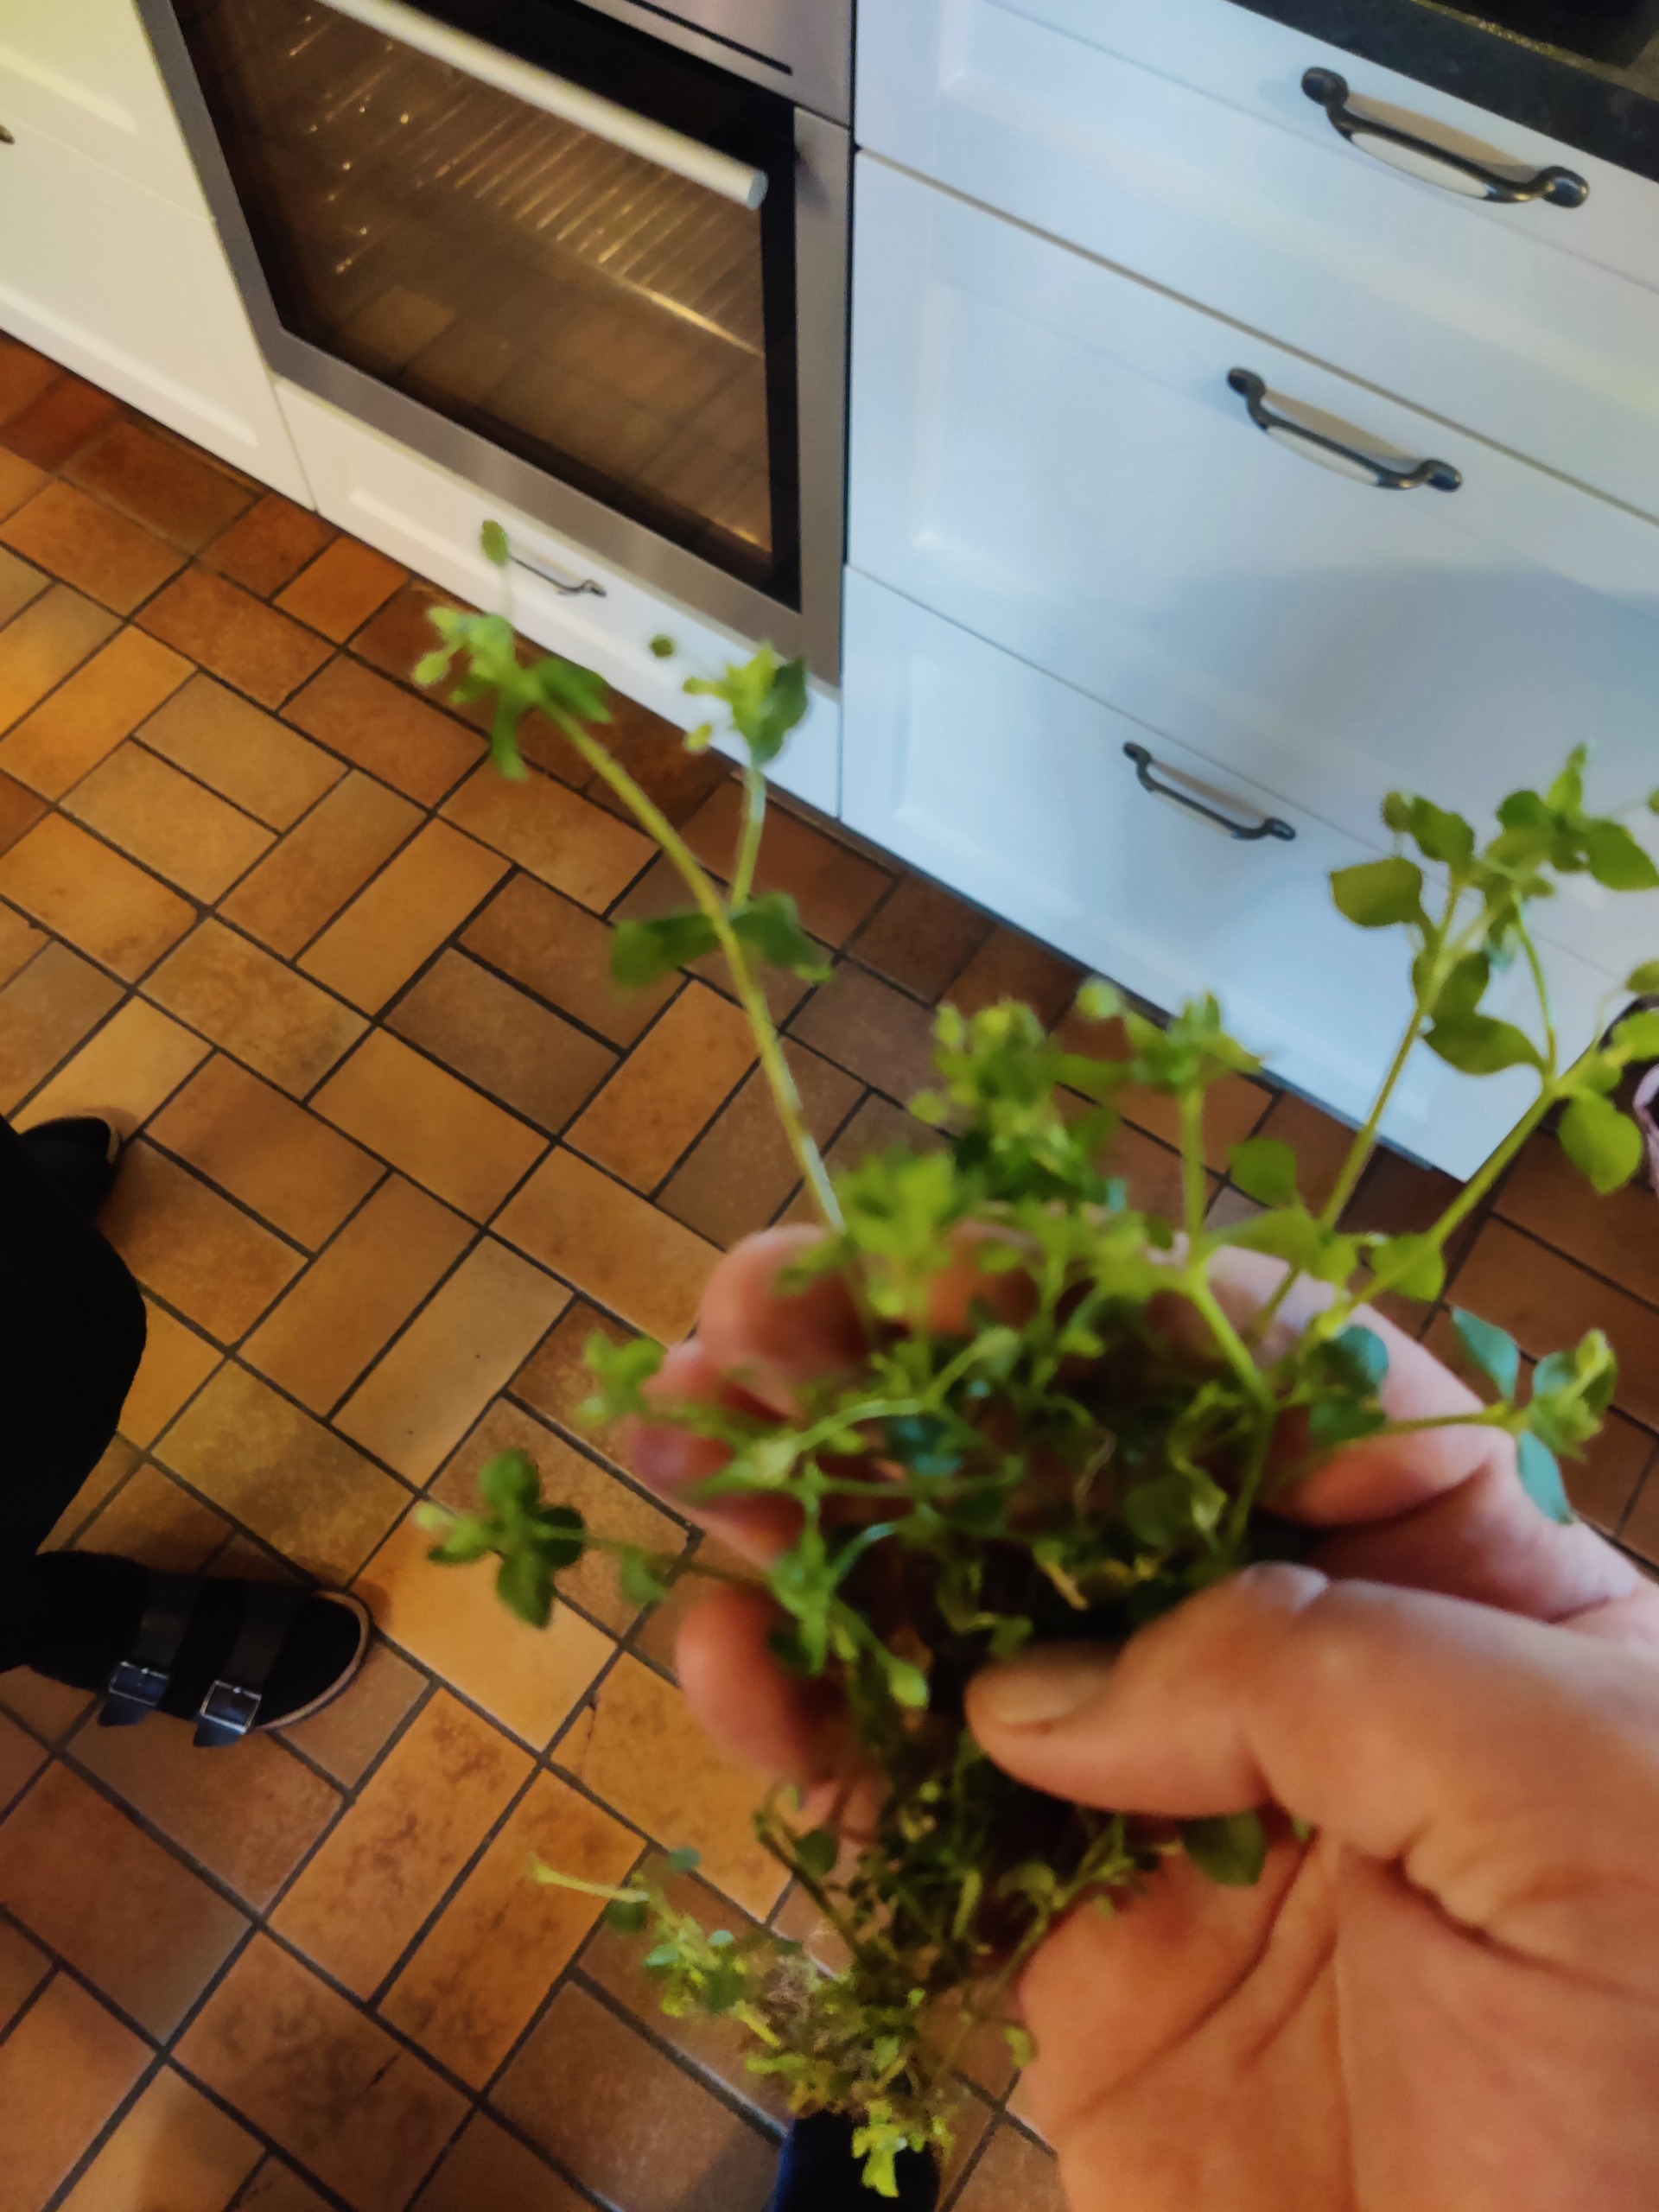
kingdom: Plantae
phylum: Tracheophyta
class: Magnoliopsida
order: Caryophyllales
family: Caryophyllaceae
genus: Stellaria
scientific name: Stellaria media
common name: Almindelig fuglegræs
